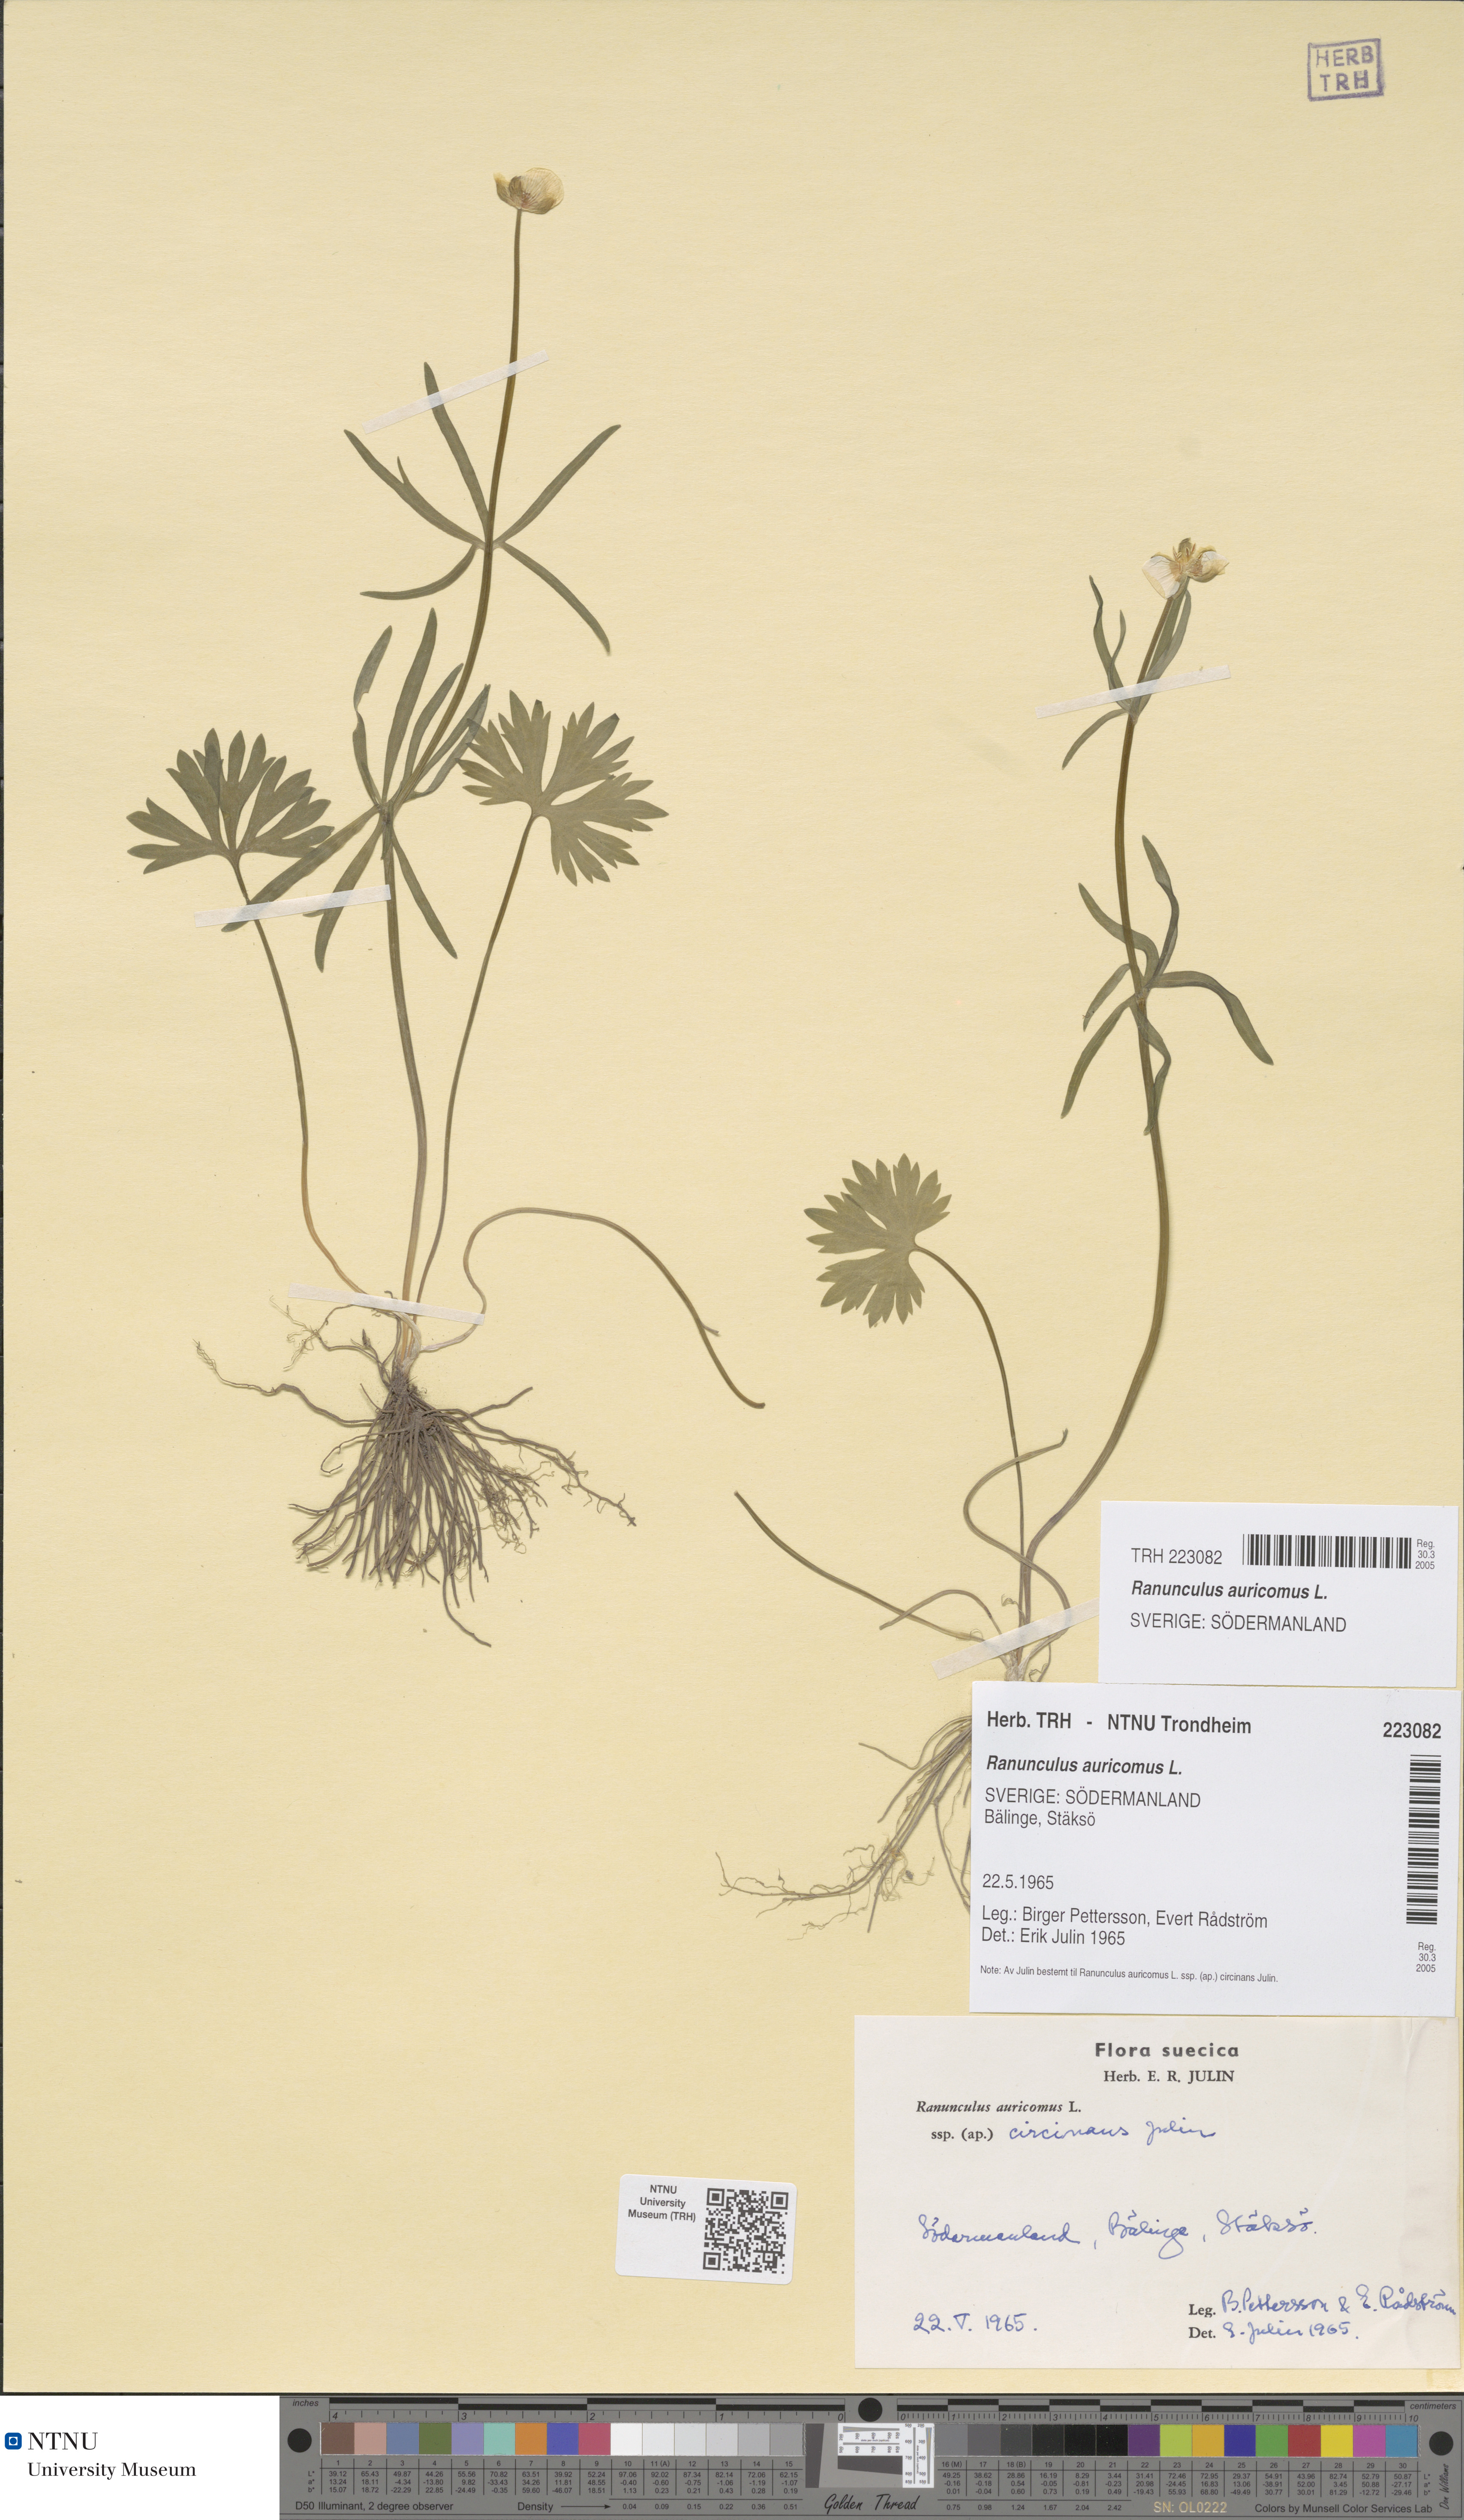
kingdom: Plantae
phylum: Tracheophyta
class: Magnoliopsida
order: Ranunculales
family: Ranunculaceae
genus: Ranunculus
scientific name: Ranunculus auricomus
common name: Goldilocks buttercup
